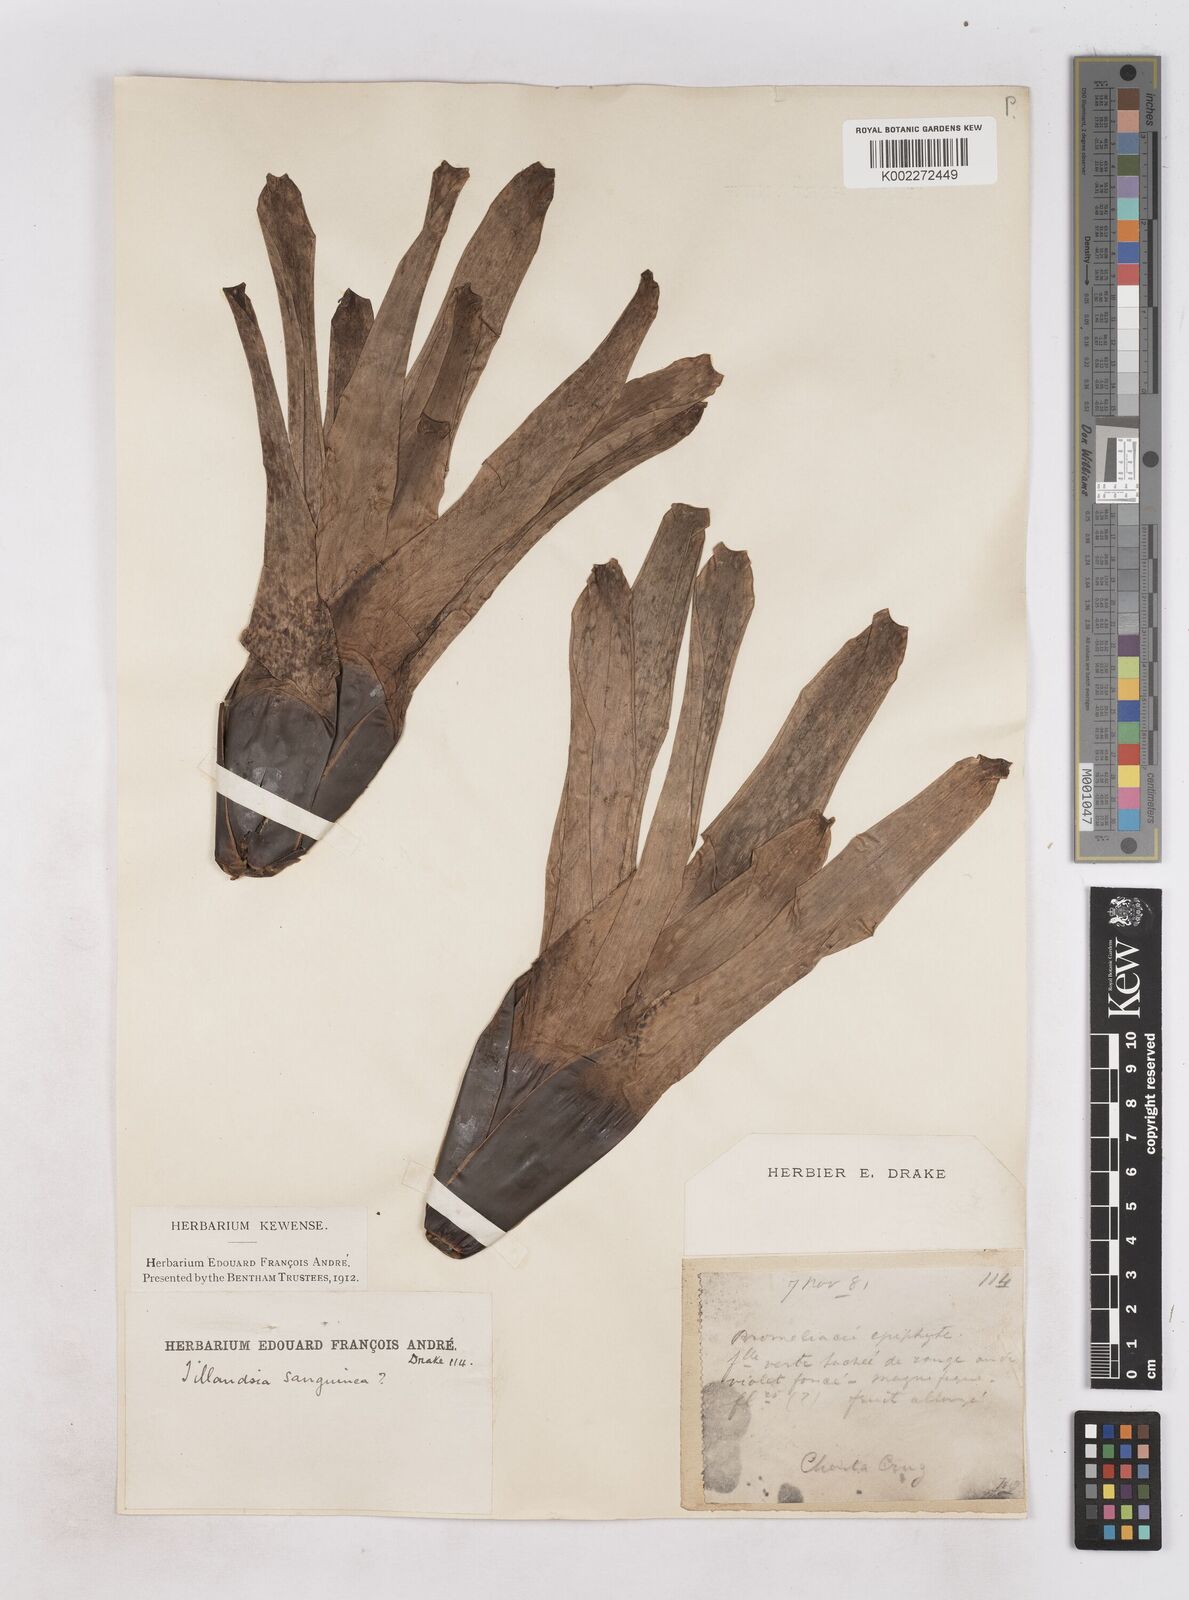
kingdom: Plantae
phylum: Tracheophyta
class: Liliopsida
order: Poales
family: Bromeliaceae
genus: Guzmania
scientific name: Guzmania sanguinea
